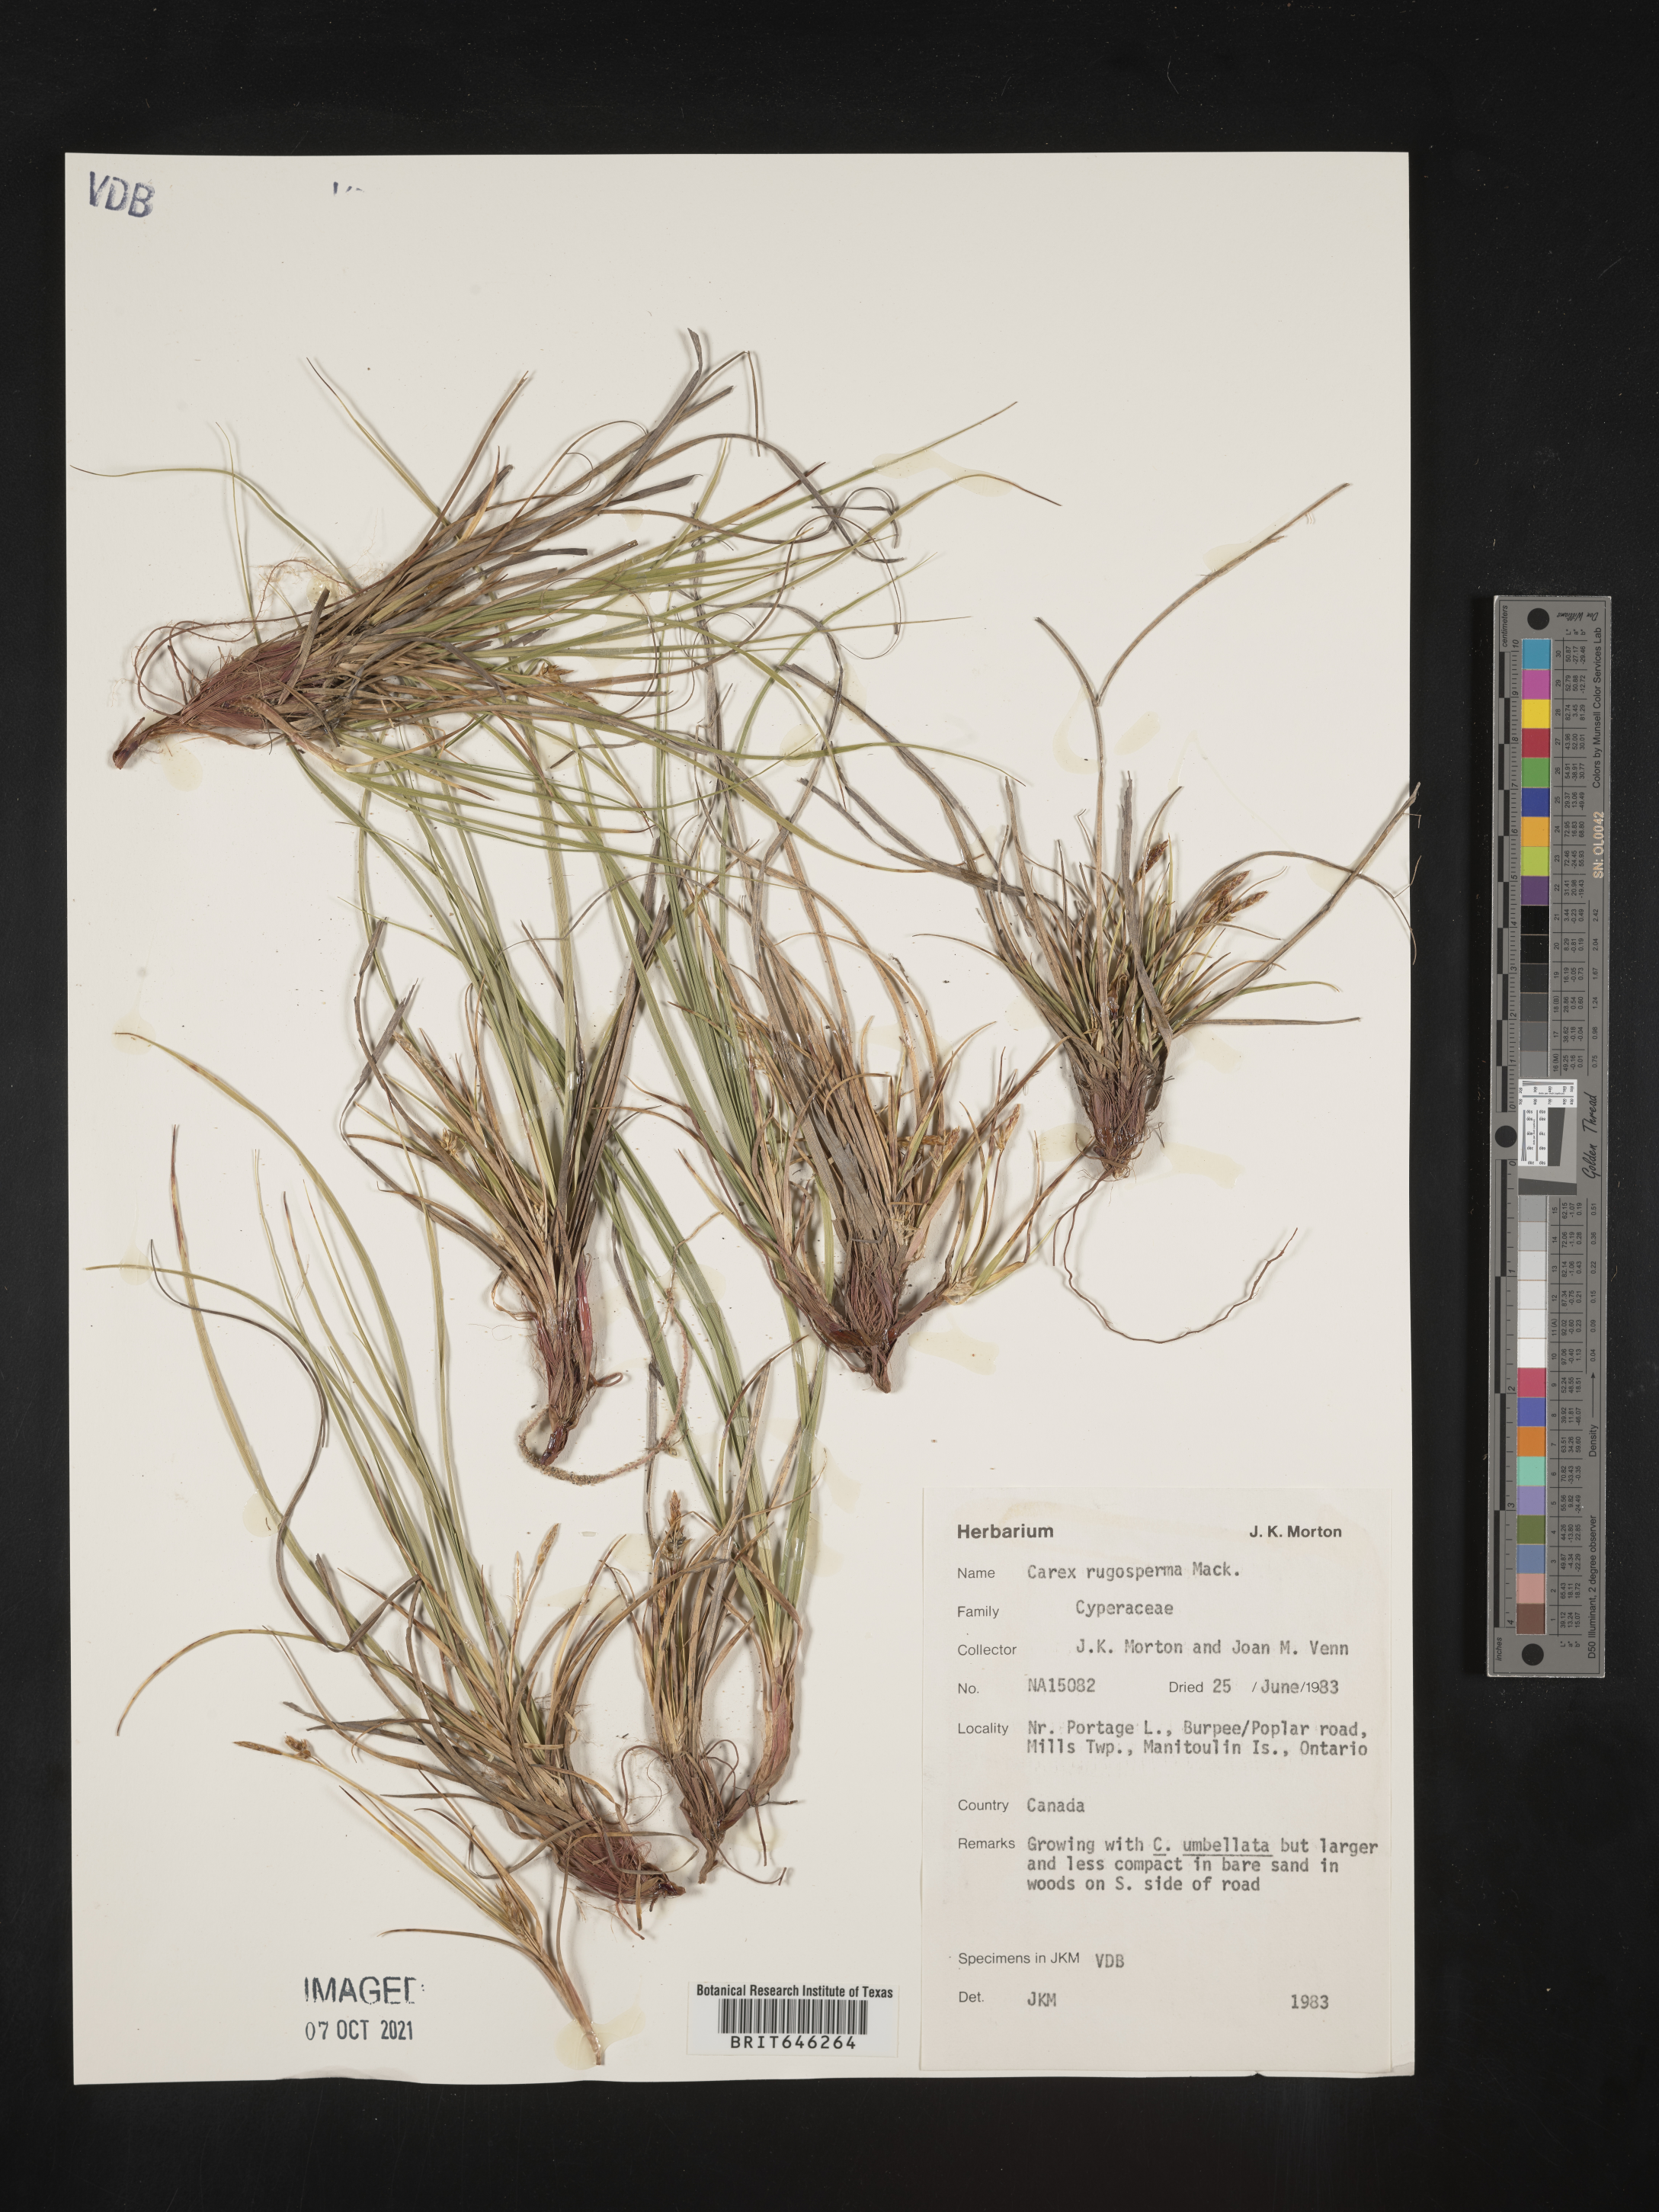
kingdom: Plantae
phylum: Tracheophyta
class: Liliopsida
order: Poales
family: Cyperaceae
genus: Carex
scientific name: Carex tonsa
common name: Bald sedge
